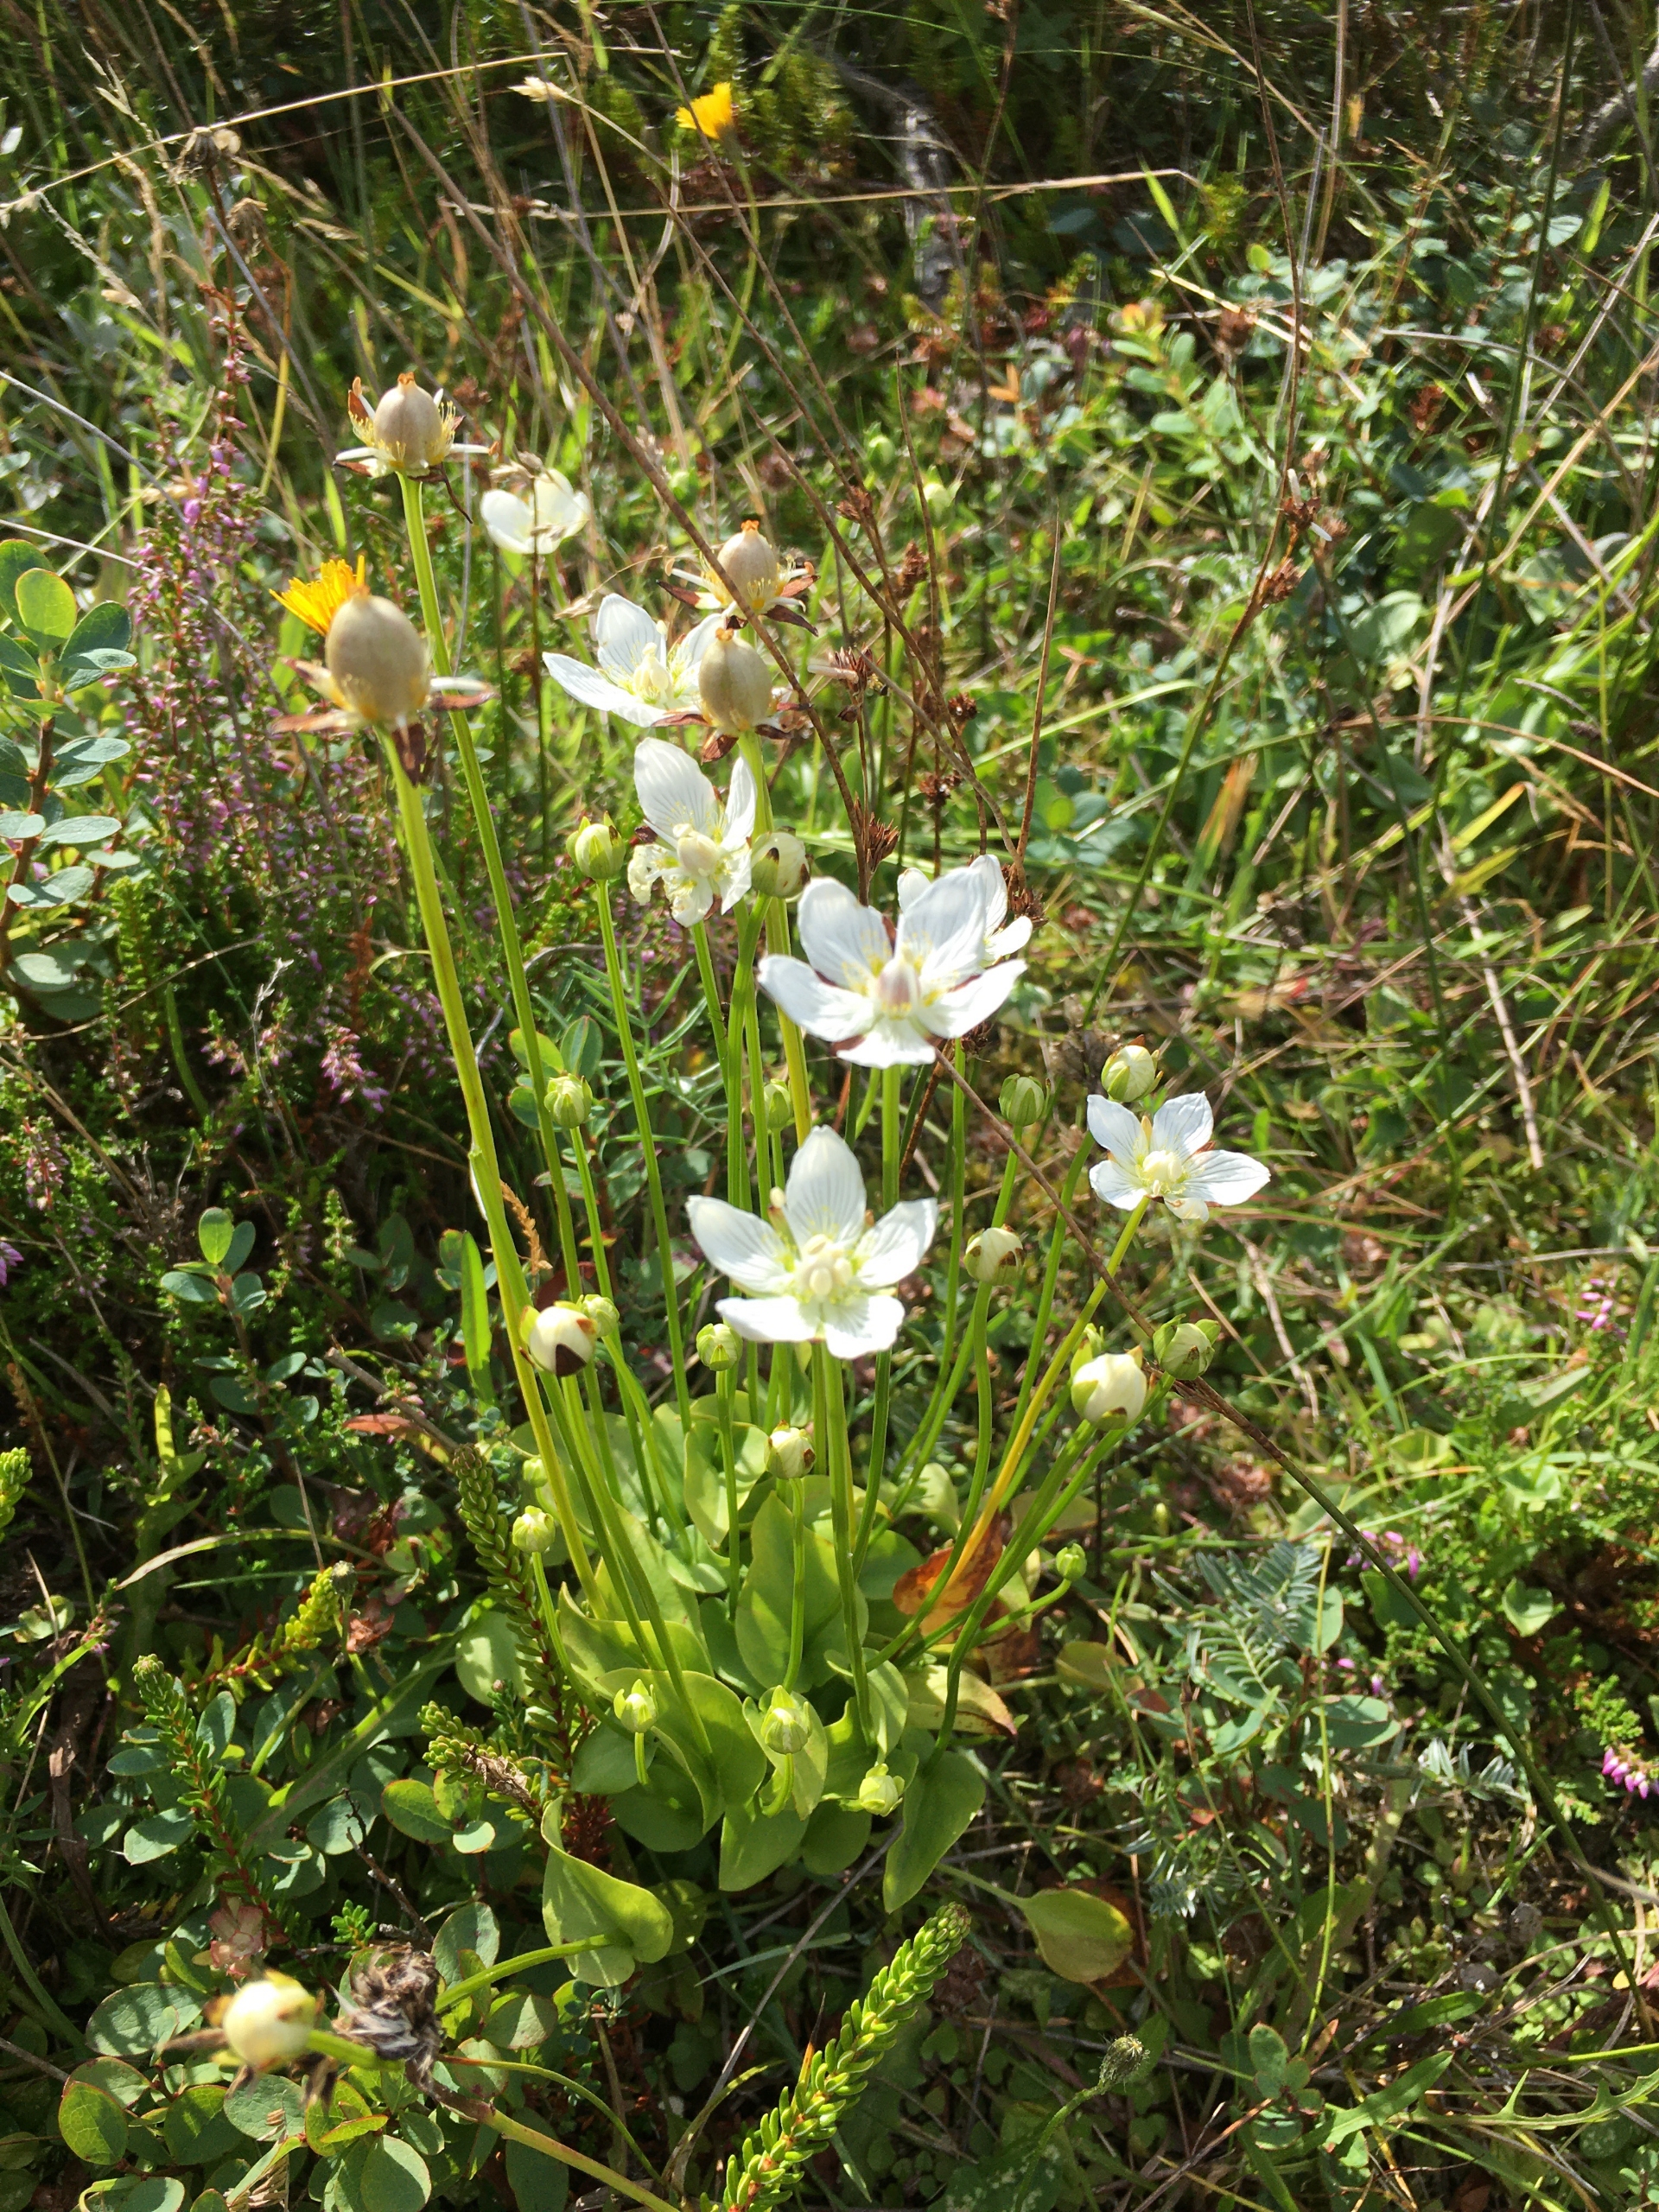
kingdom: Plantae
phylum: Tracheophyta
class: Magnoliopsida
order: Celastrales
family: Parnassiaceae
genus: Parnassia
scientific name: Parnassia palustris
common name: Leverurt
